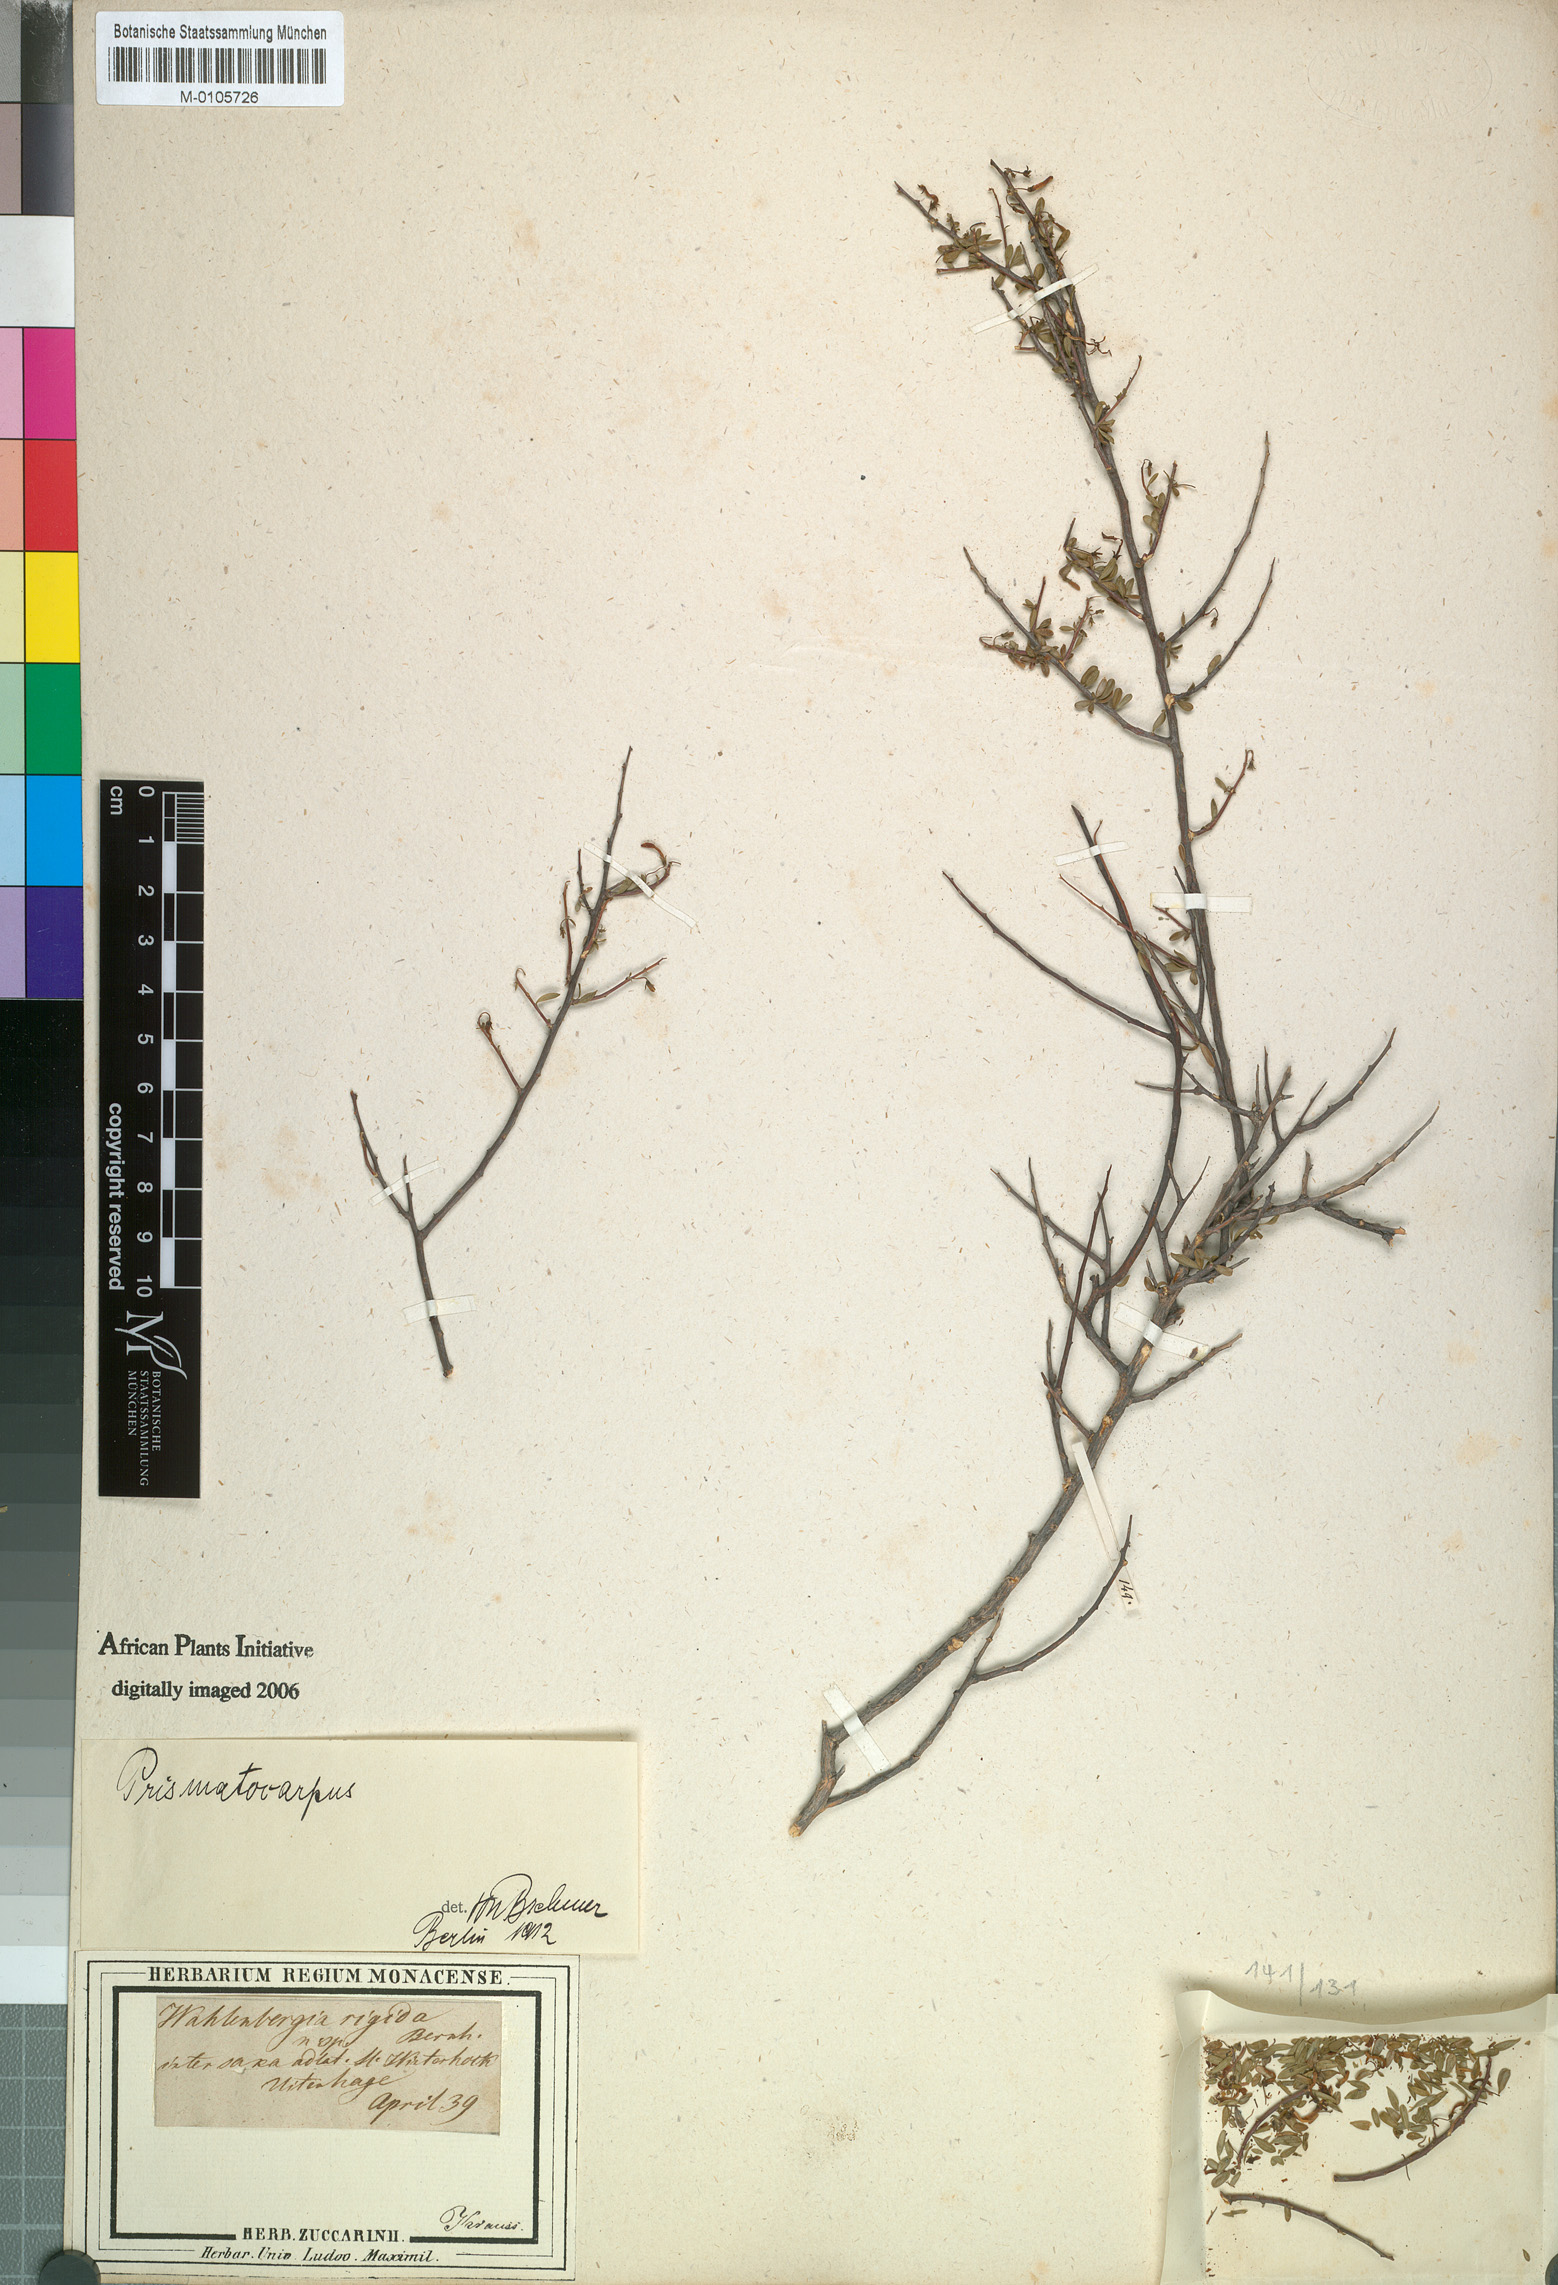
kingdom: Plantae
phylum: Tracheophyta
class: Magnoliopsida
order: Asterales
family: Campanulaceae
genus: Theilera
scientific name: Theilera robusta
